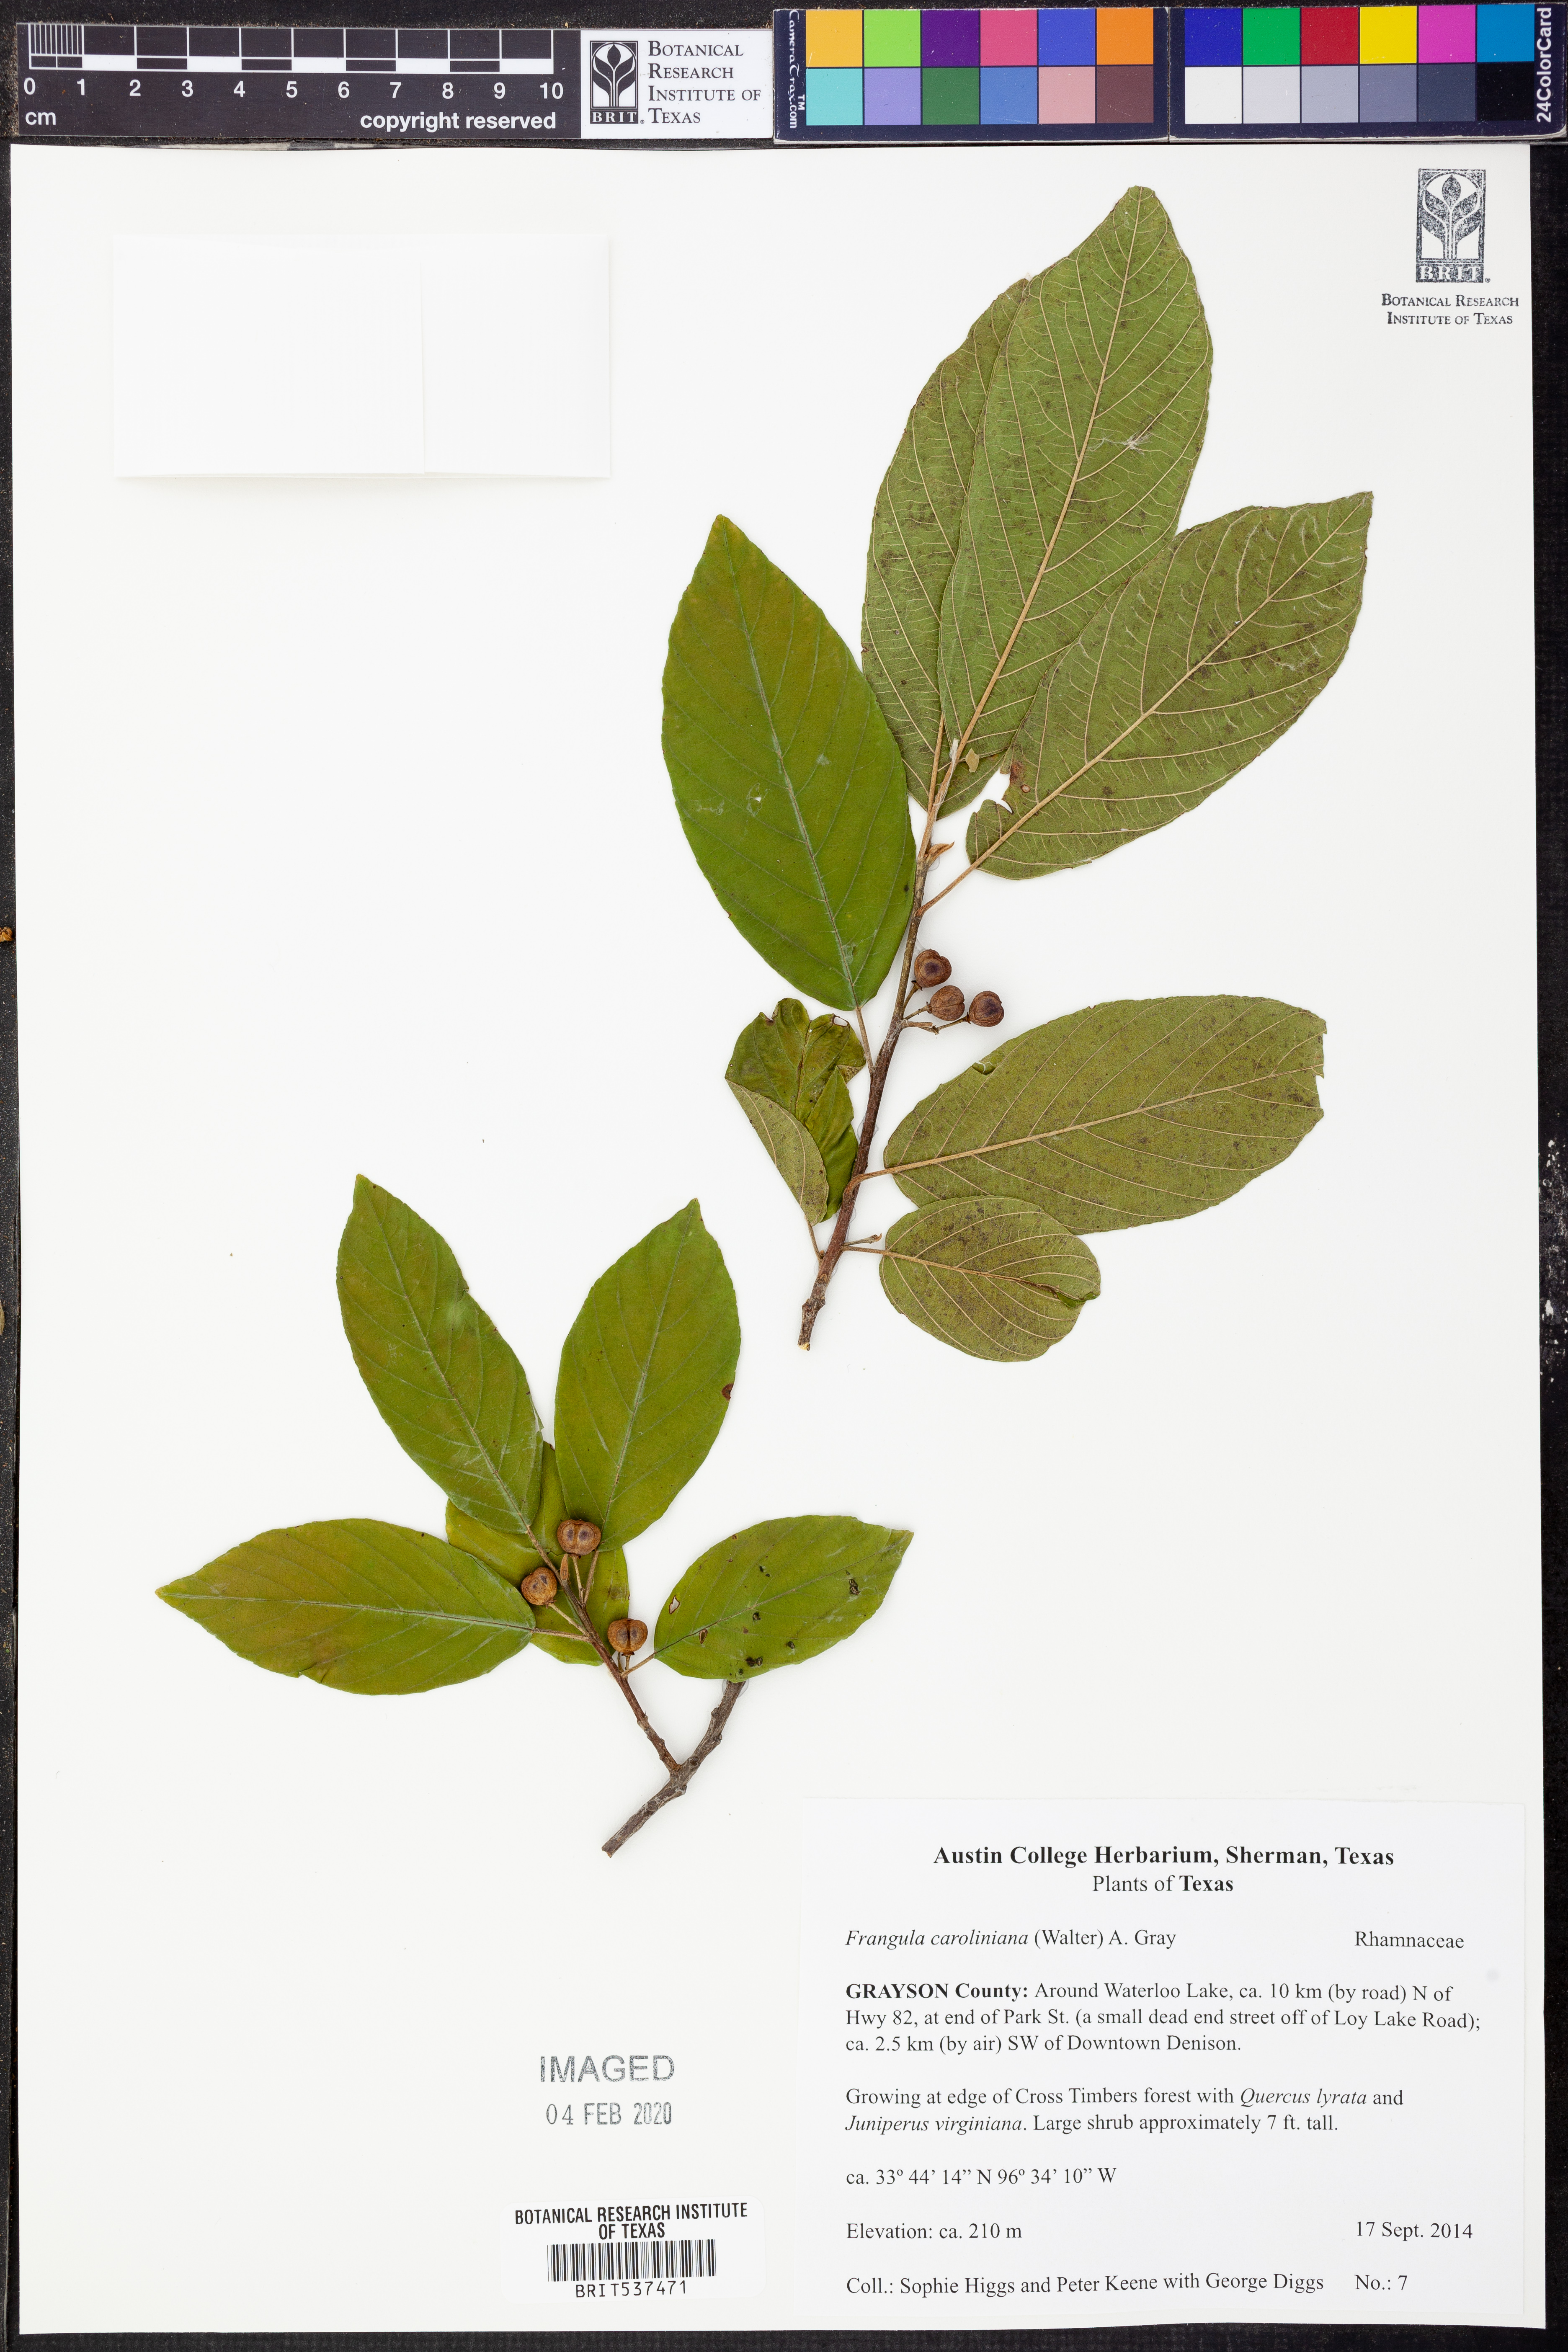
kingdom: Plantae
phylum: Tracheophyta
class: Magnoliopsida
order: Rosales
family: Rhamnaceae
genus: Frangula
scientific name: Frangula caroliniana
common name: Carolina buckthorn
